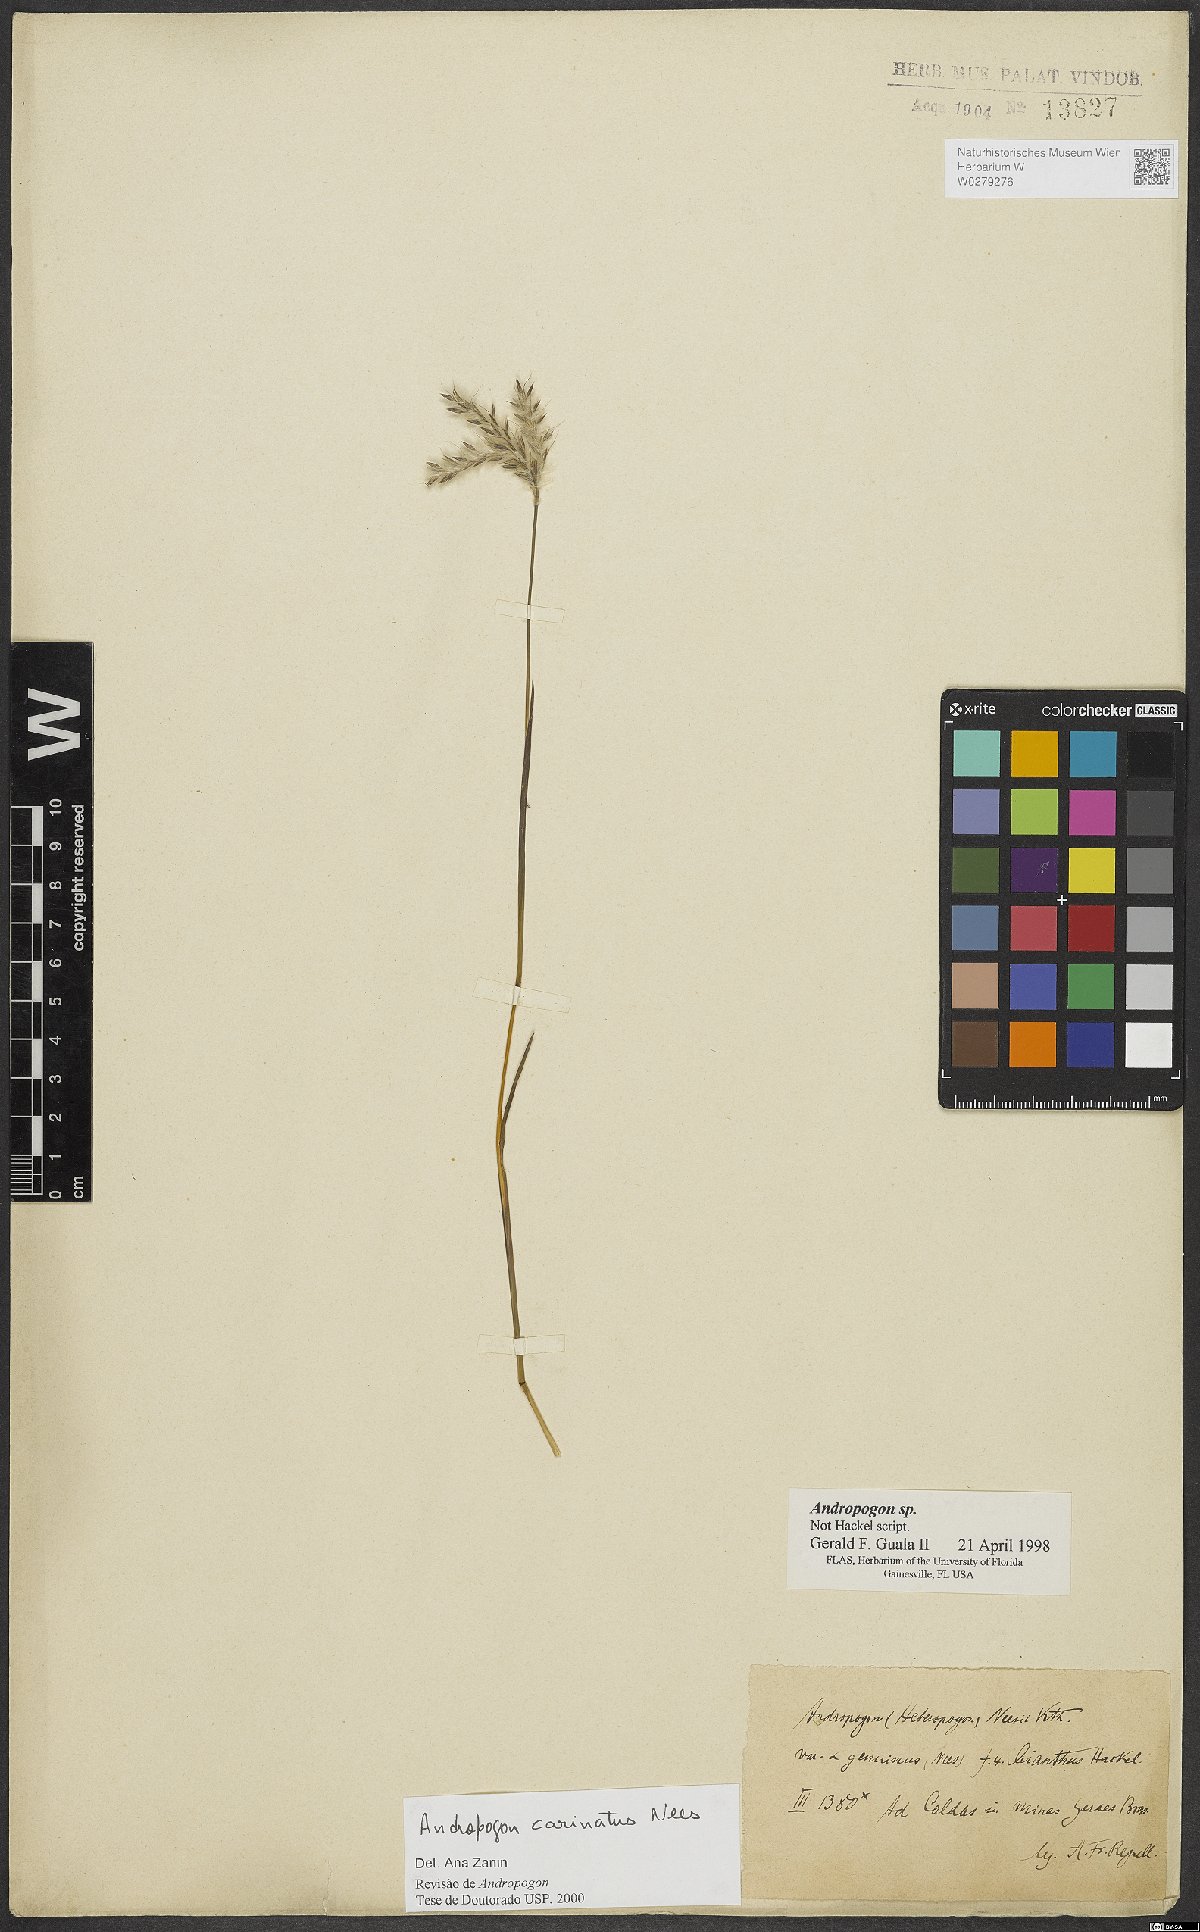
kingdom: Plantae
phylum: Tracheophyta
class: Liliopsida
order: Poales
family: Poaceae
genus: Andropogon
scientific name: Andropogon carinatus
